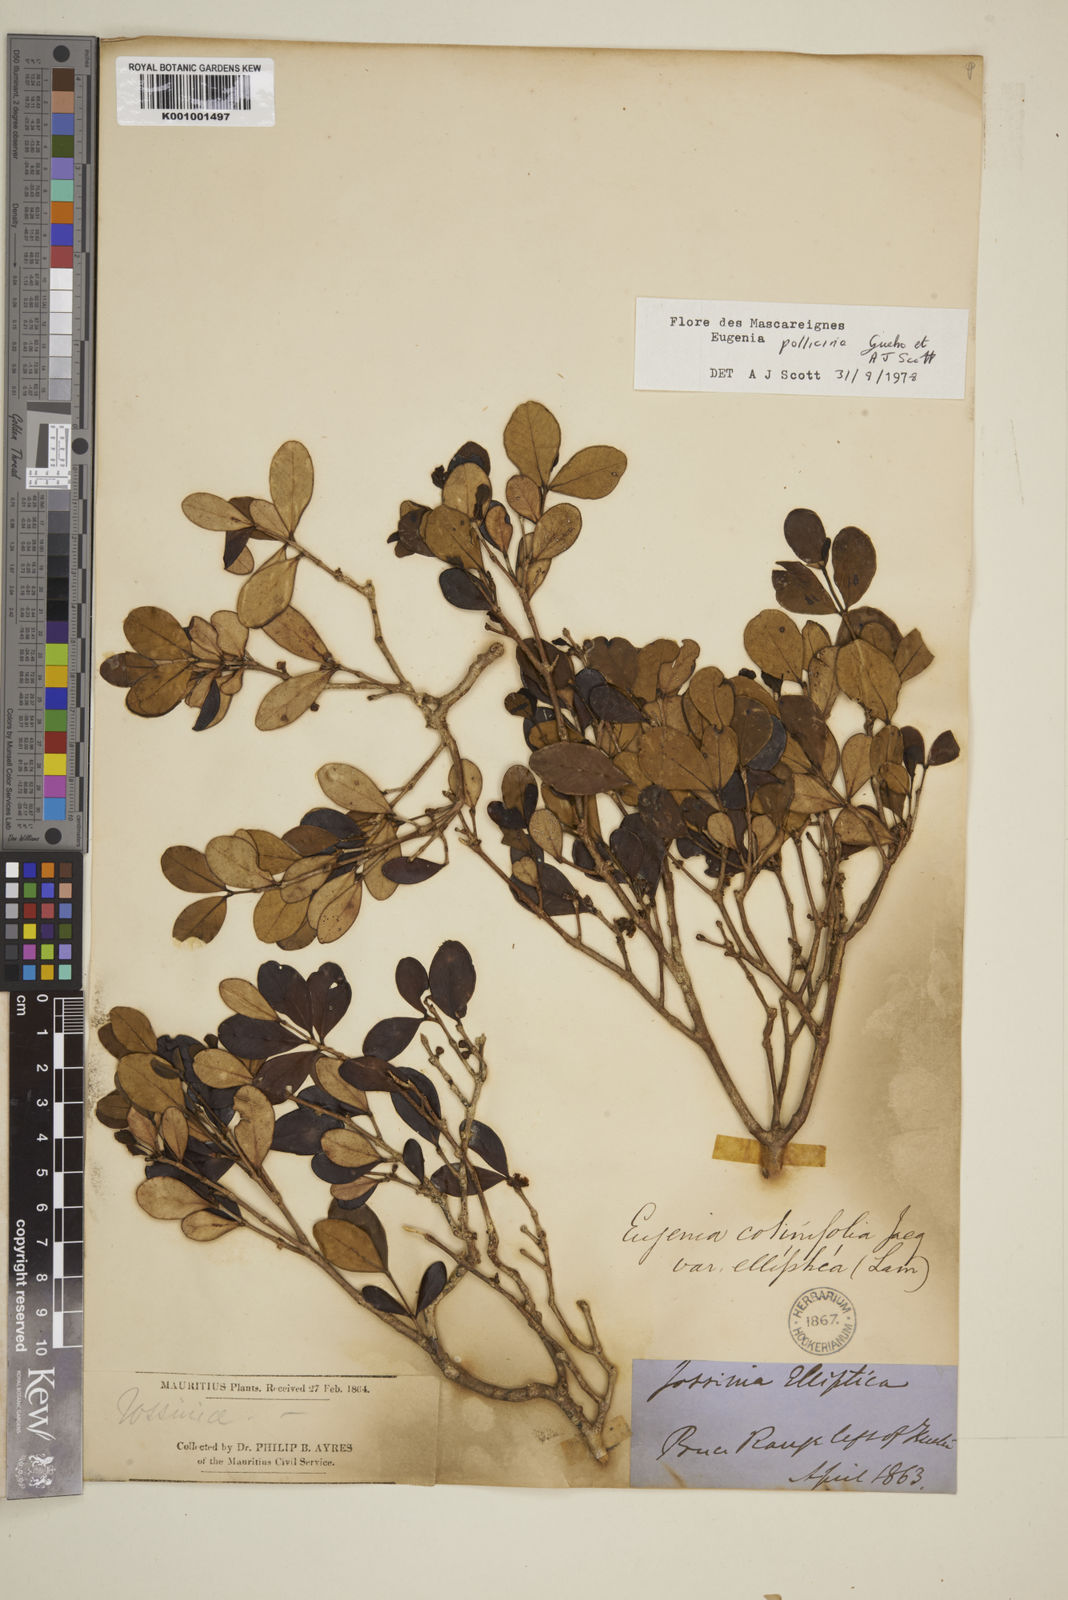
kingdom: Plantae
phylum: Tracheophyta
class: Magnoliopsida
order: Myrtales
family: Myrtaceae
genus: Eugenia
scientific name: Eugenia
